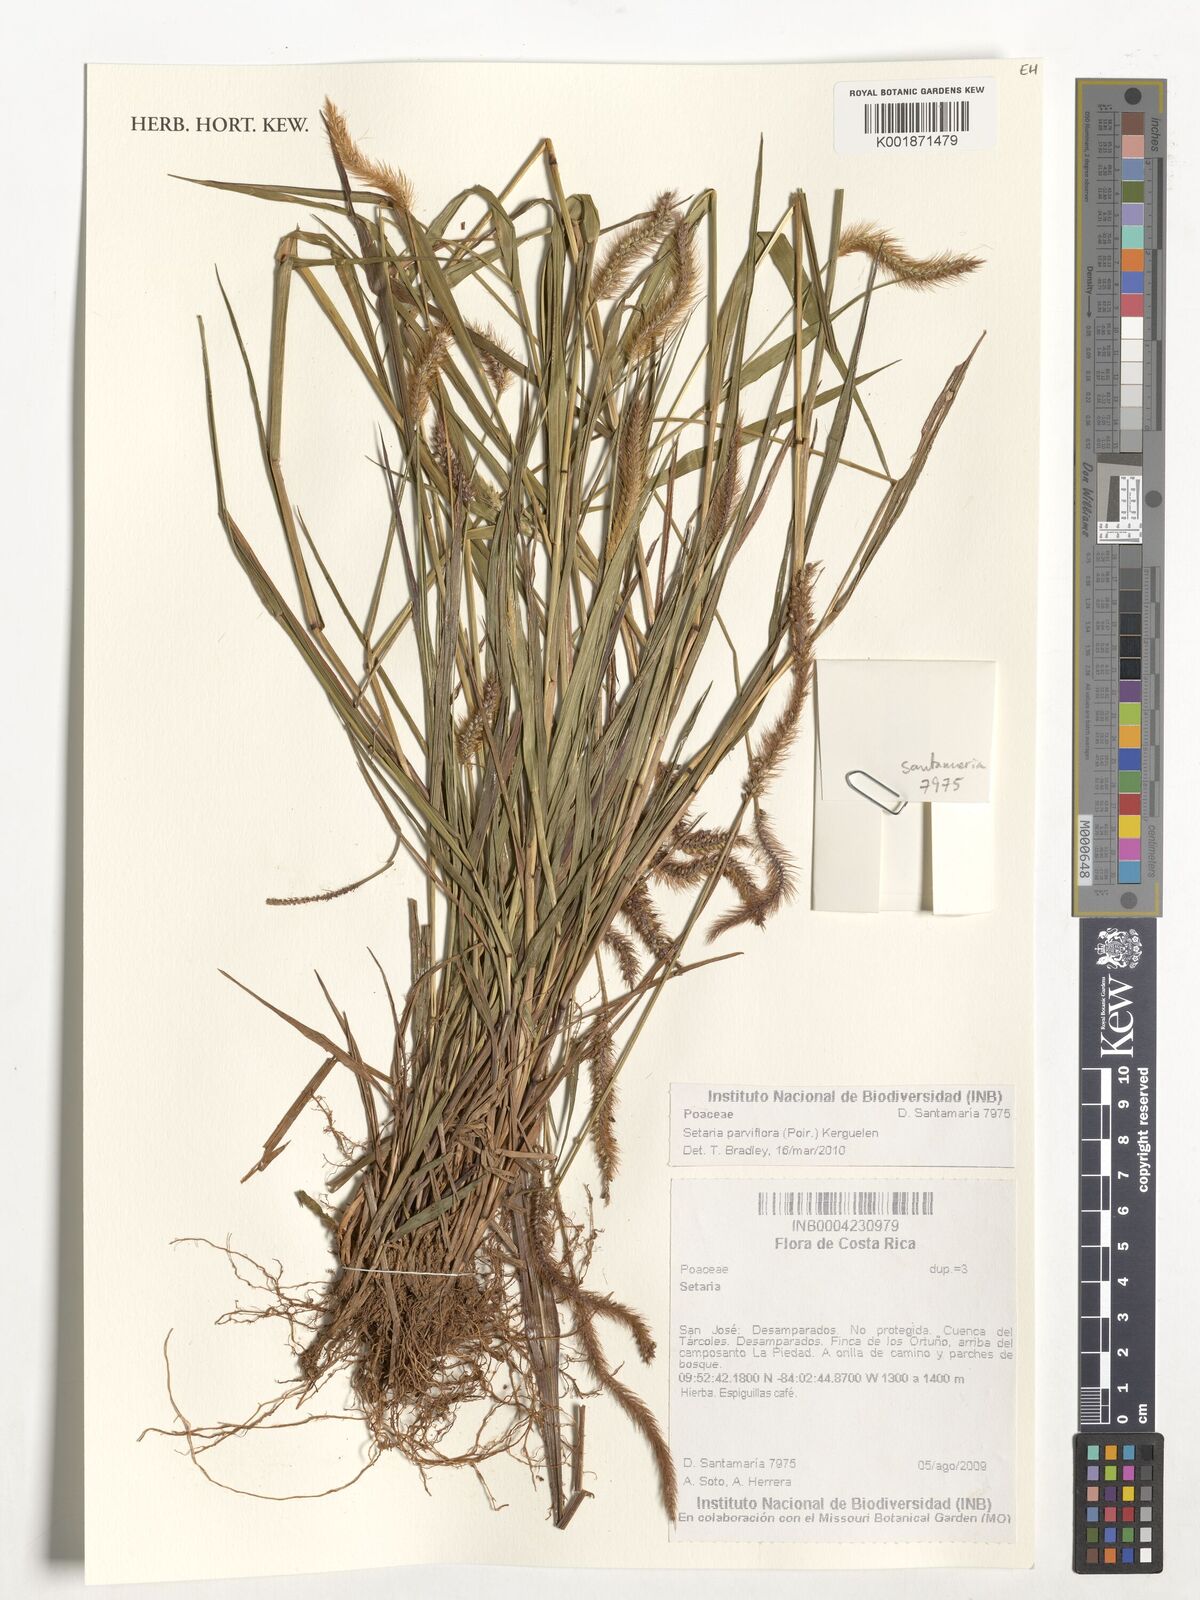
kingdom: Plantae
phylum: Tracheophyta
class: Liliopsida
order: Poales
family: Poaceae
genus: Setaria
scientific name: Setaria parviflora
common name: Knotroot bristle-grass
